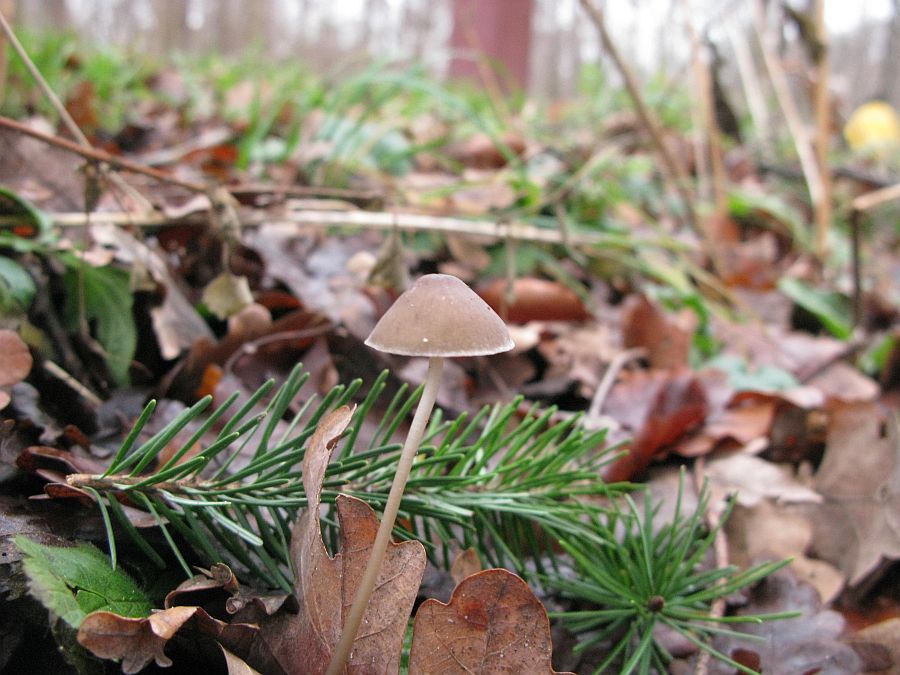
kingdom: Fungi
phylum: Basidiomycota
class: Agaricomycetes
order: Agaricales
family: Mycenaceae
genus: Mycena
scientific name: Mycena vitilis
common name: blankstokket huesvamp
